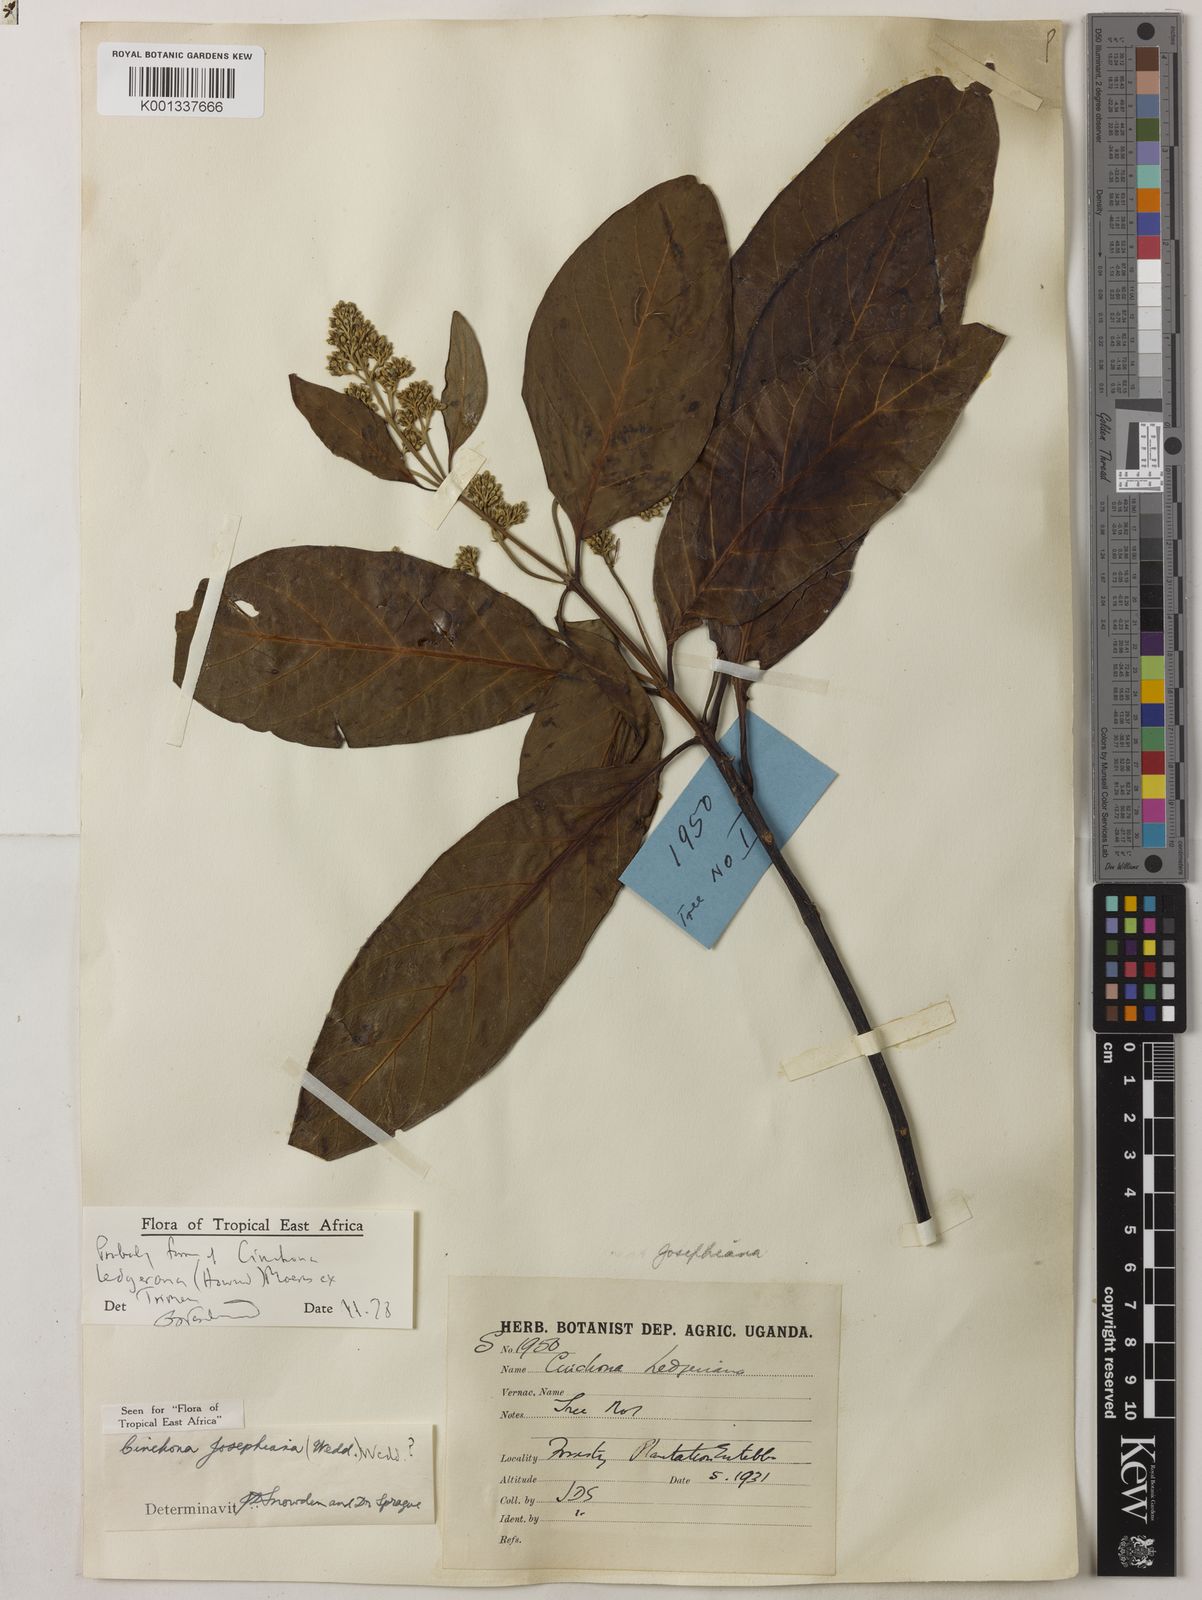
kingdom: Plantae
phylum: Tracheophyta
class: Magnoliopsida
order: Gentianales
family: Rubiaceae
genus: Cinchona
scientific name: Cinchona calisaya
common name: Ledgerbark
